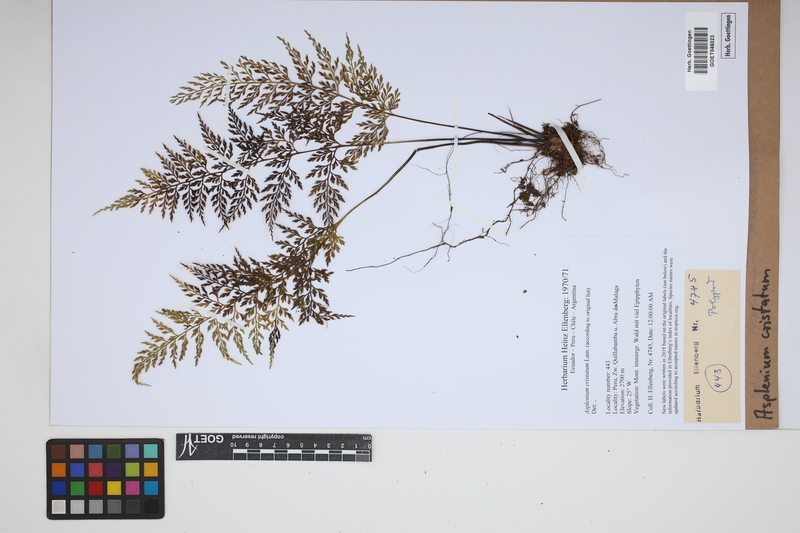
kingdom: Plantae
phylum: Tracheophyta
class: Polypodiopsida
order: Polypodiales
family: Aspleniaceae
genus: Asplenium
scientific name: Asplenium cristatum
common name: Parsley spleenwort
